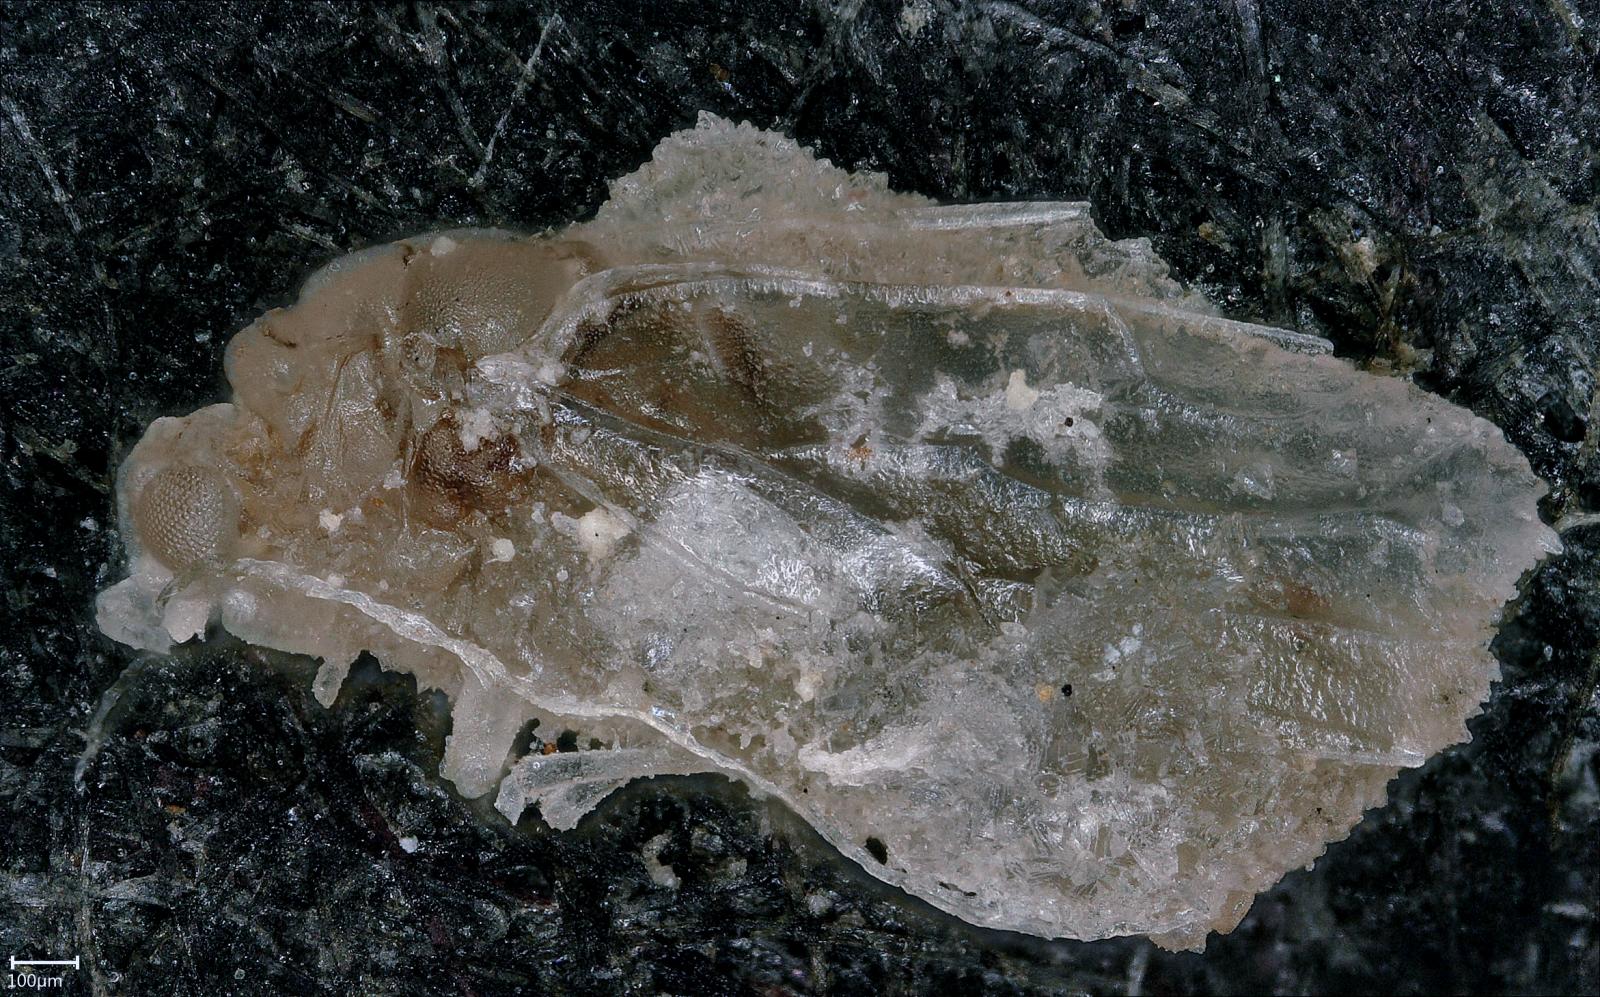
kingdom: Animalia
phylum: Arthropoda
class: Insecta
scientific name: Insecta
